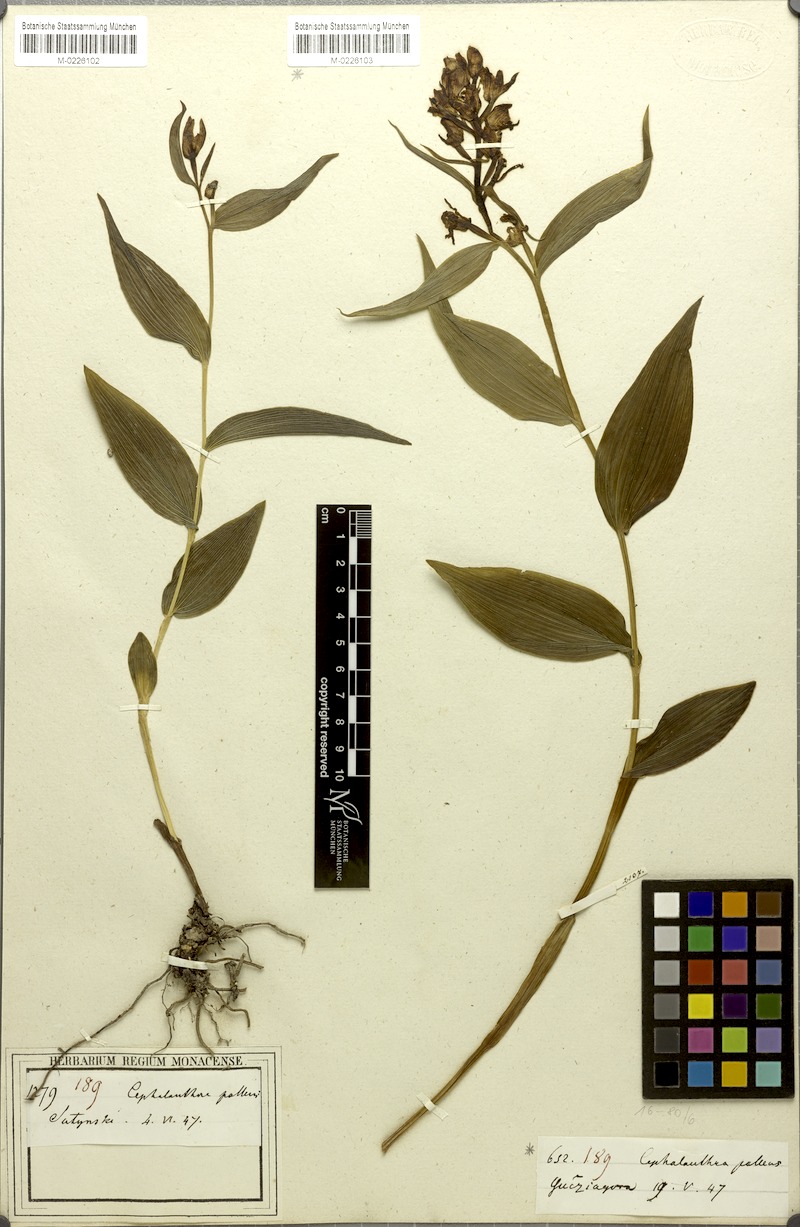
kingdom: Plantae
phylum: Tracheophyta
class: Liliopsida
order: Asparagales
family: Orchidaceae
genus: Cephalanthera
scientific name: Cephalanthera longifolia
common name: Narrow-leaved helleborine
